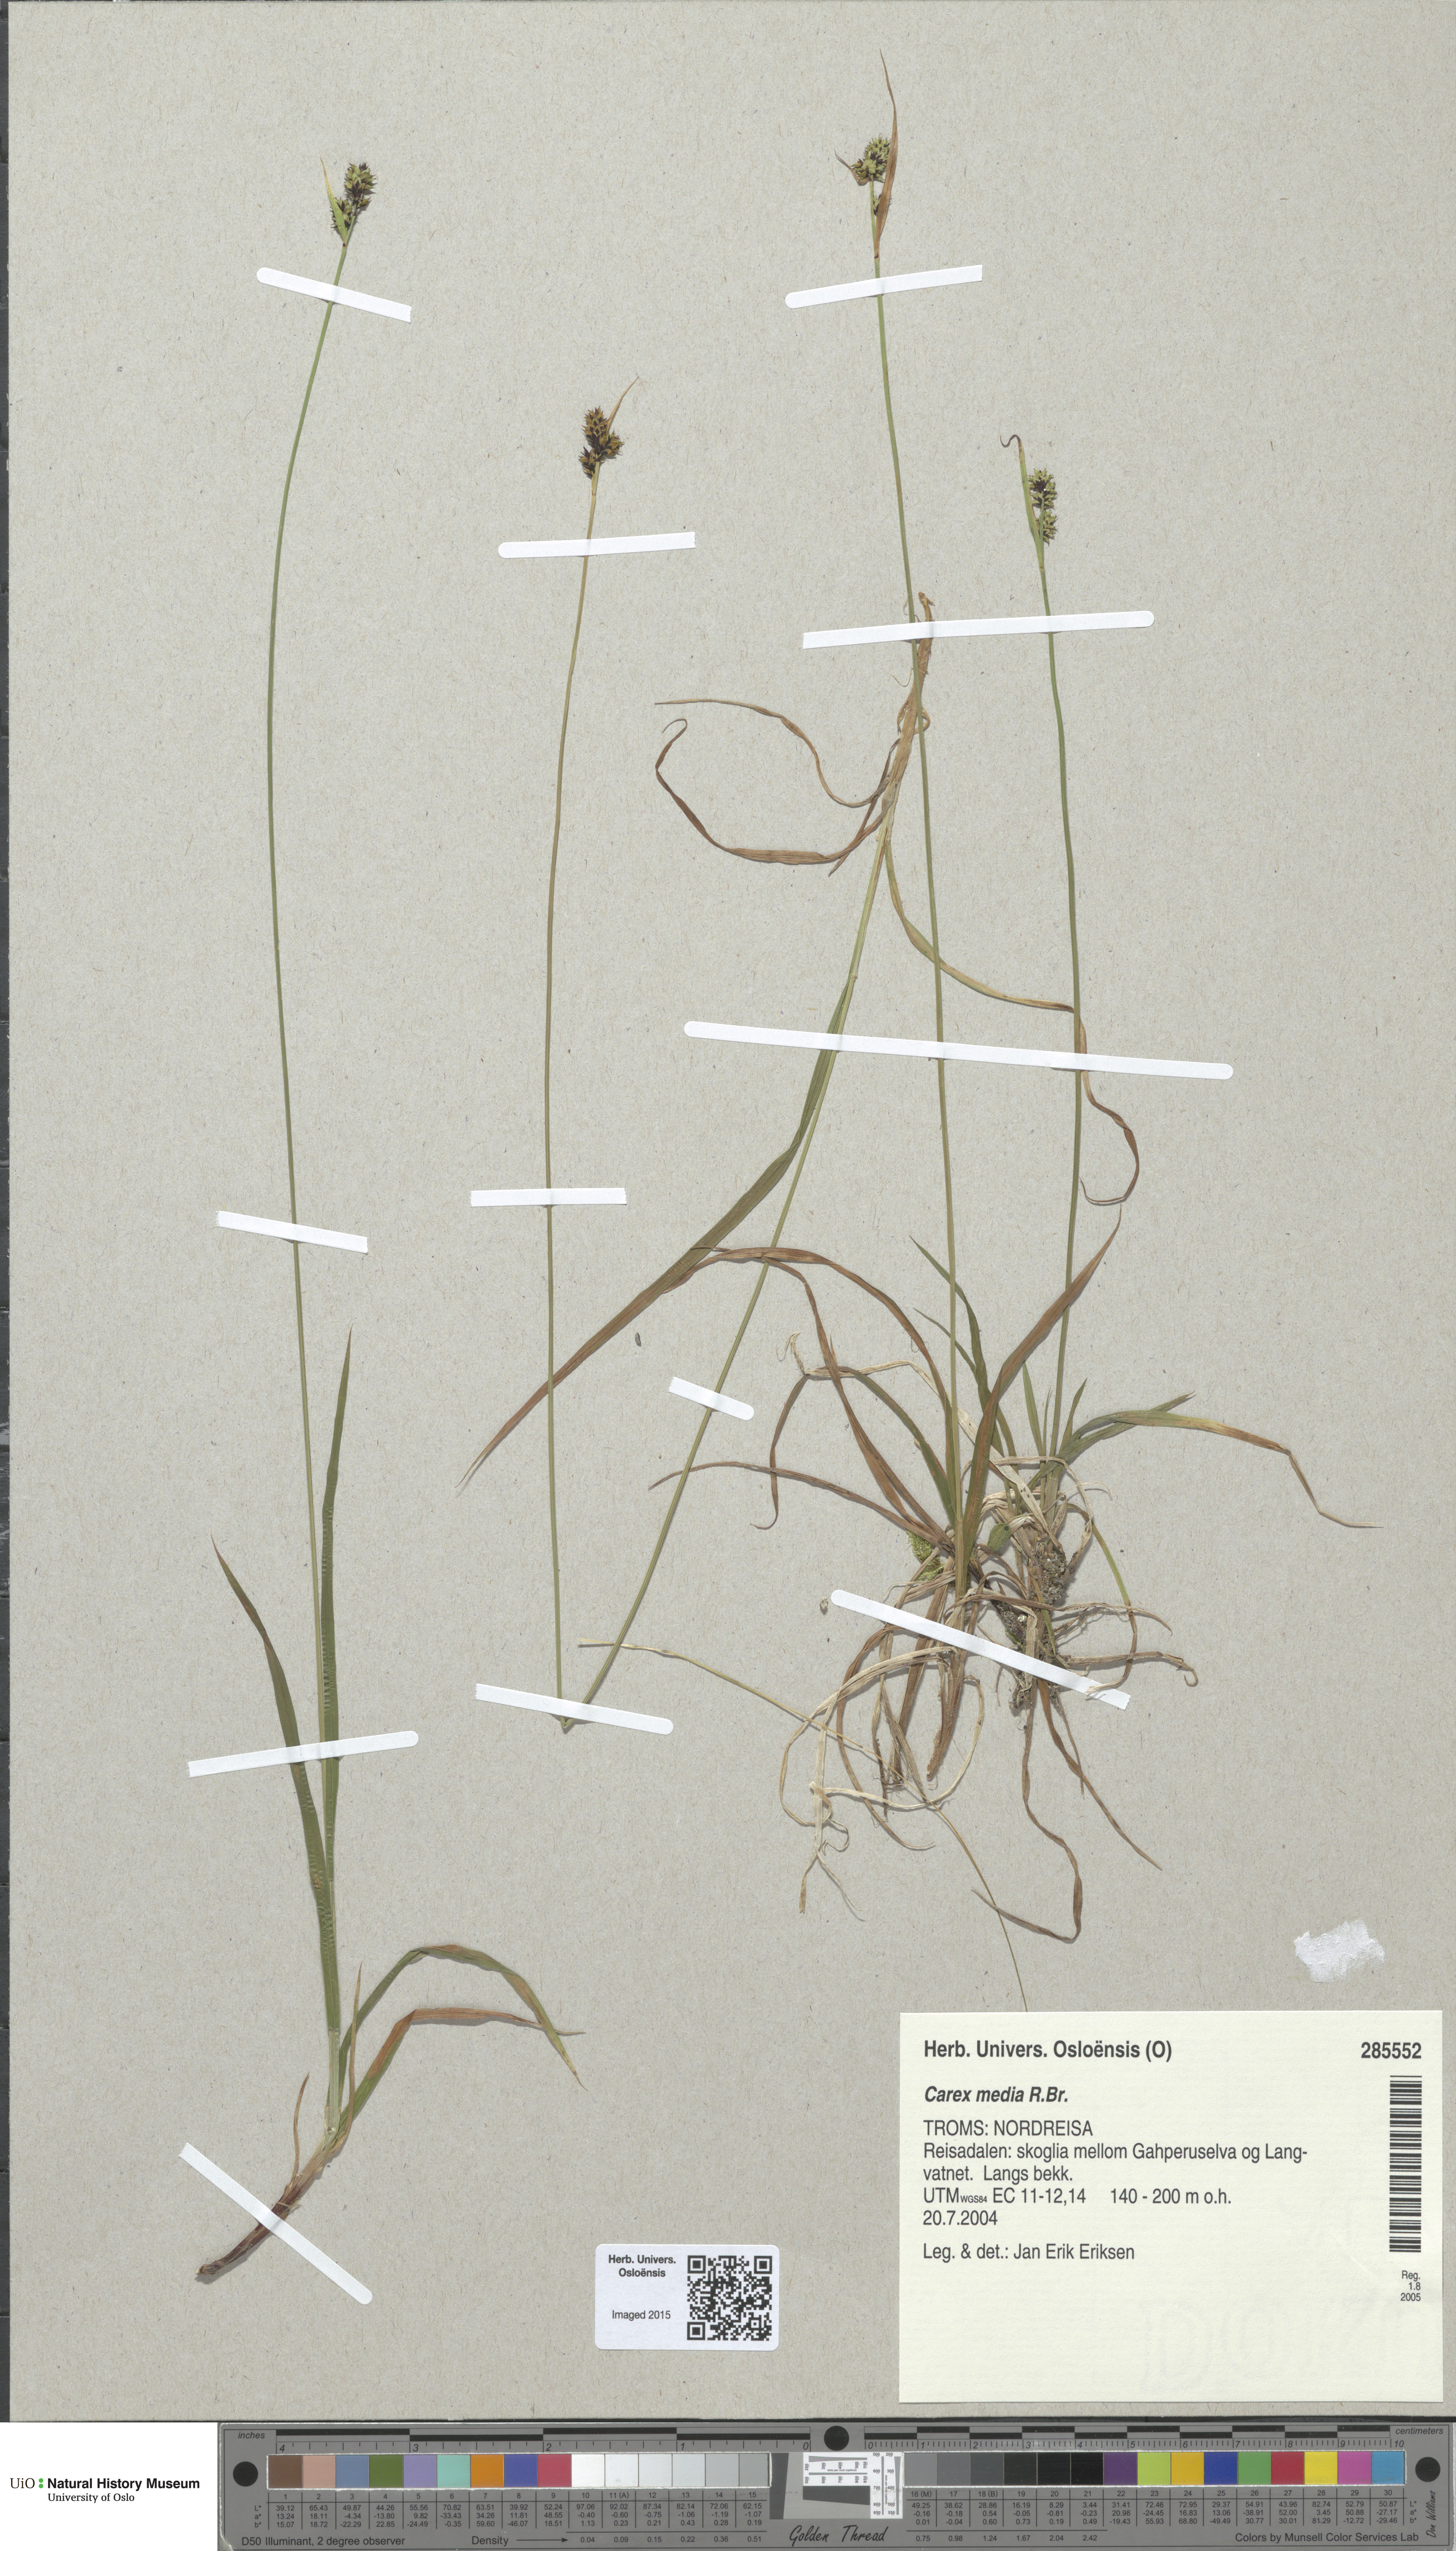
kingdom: Plantae
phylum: Tracheophyta
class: Liliopsida
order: Poales
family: Cyperaceae
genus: Carex
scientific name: Carex media
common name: Alpine sedge
